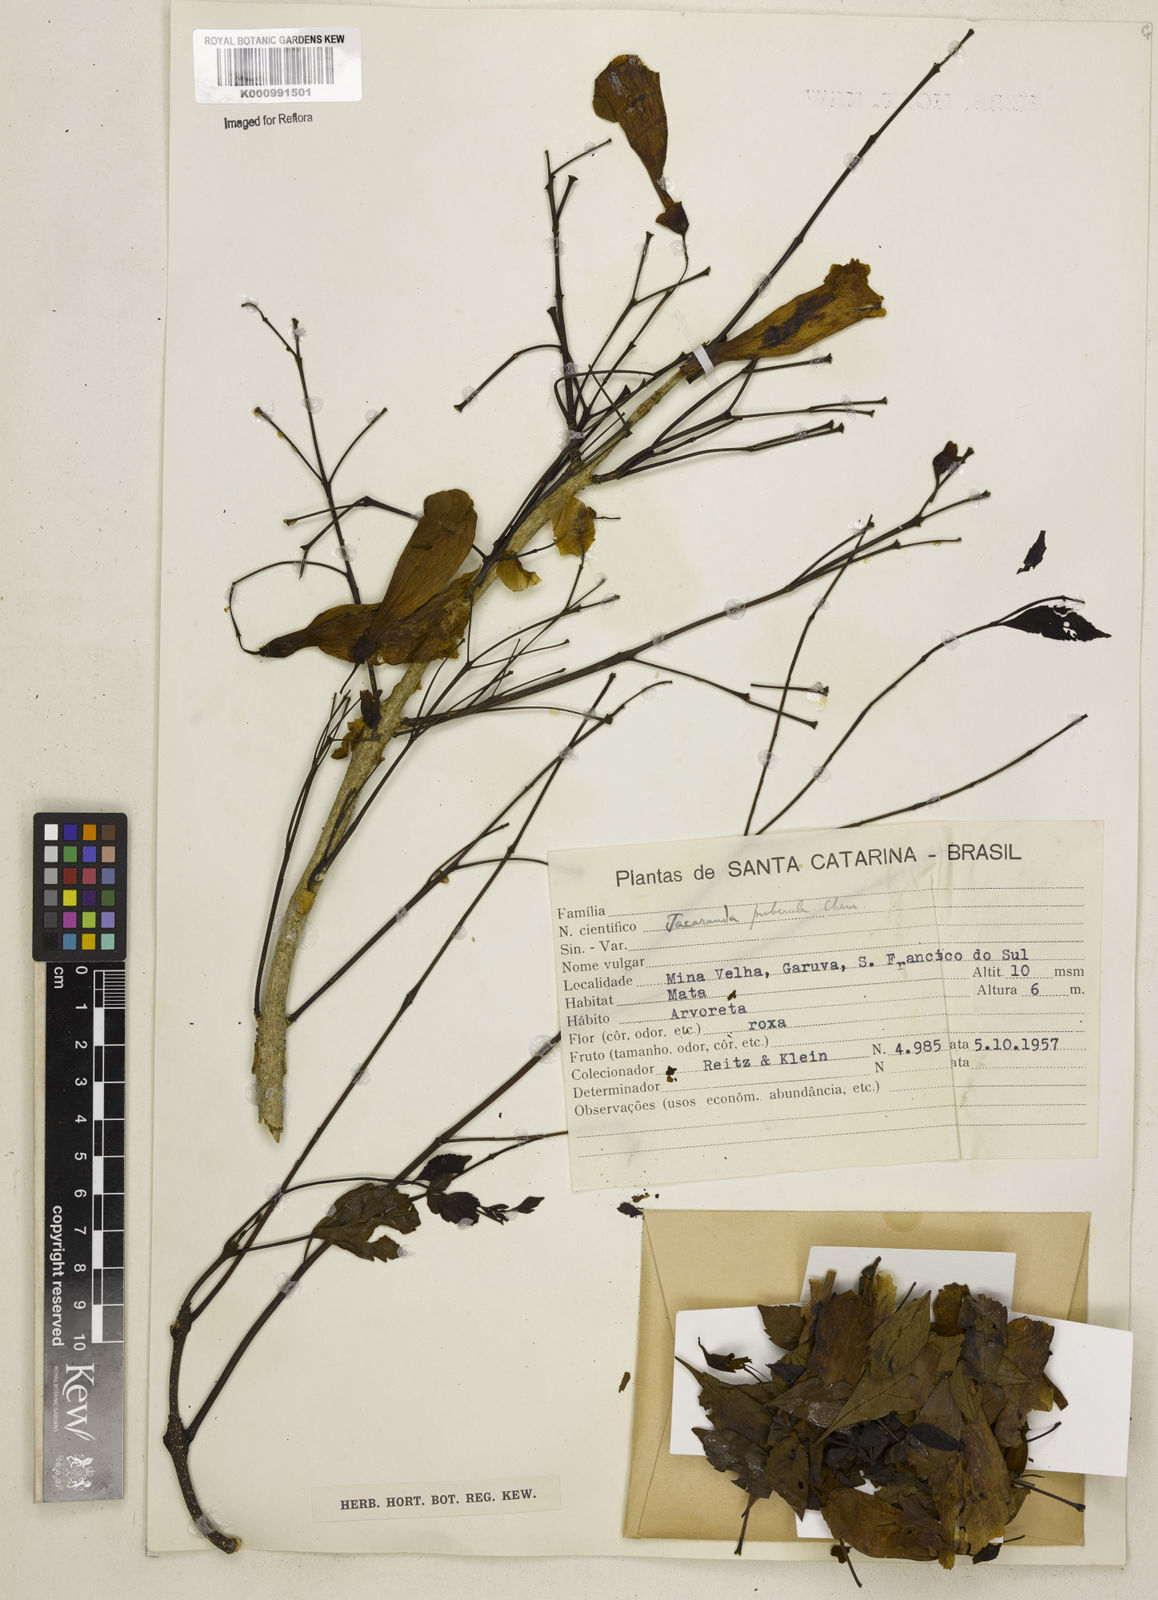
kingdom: Plantae
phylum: Tracheophyta
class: Magnoliopsida
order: Lamiales
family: Bignoniaceae
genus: Jacaranda
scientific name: Jacaranda puberula
